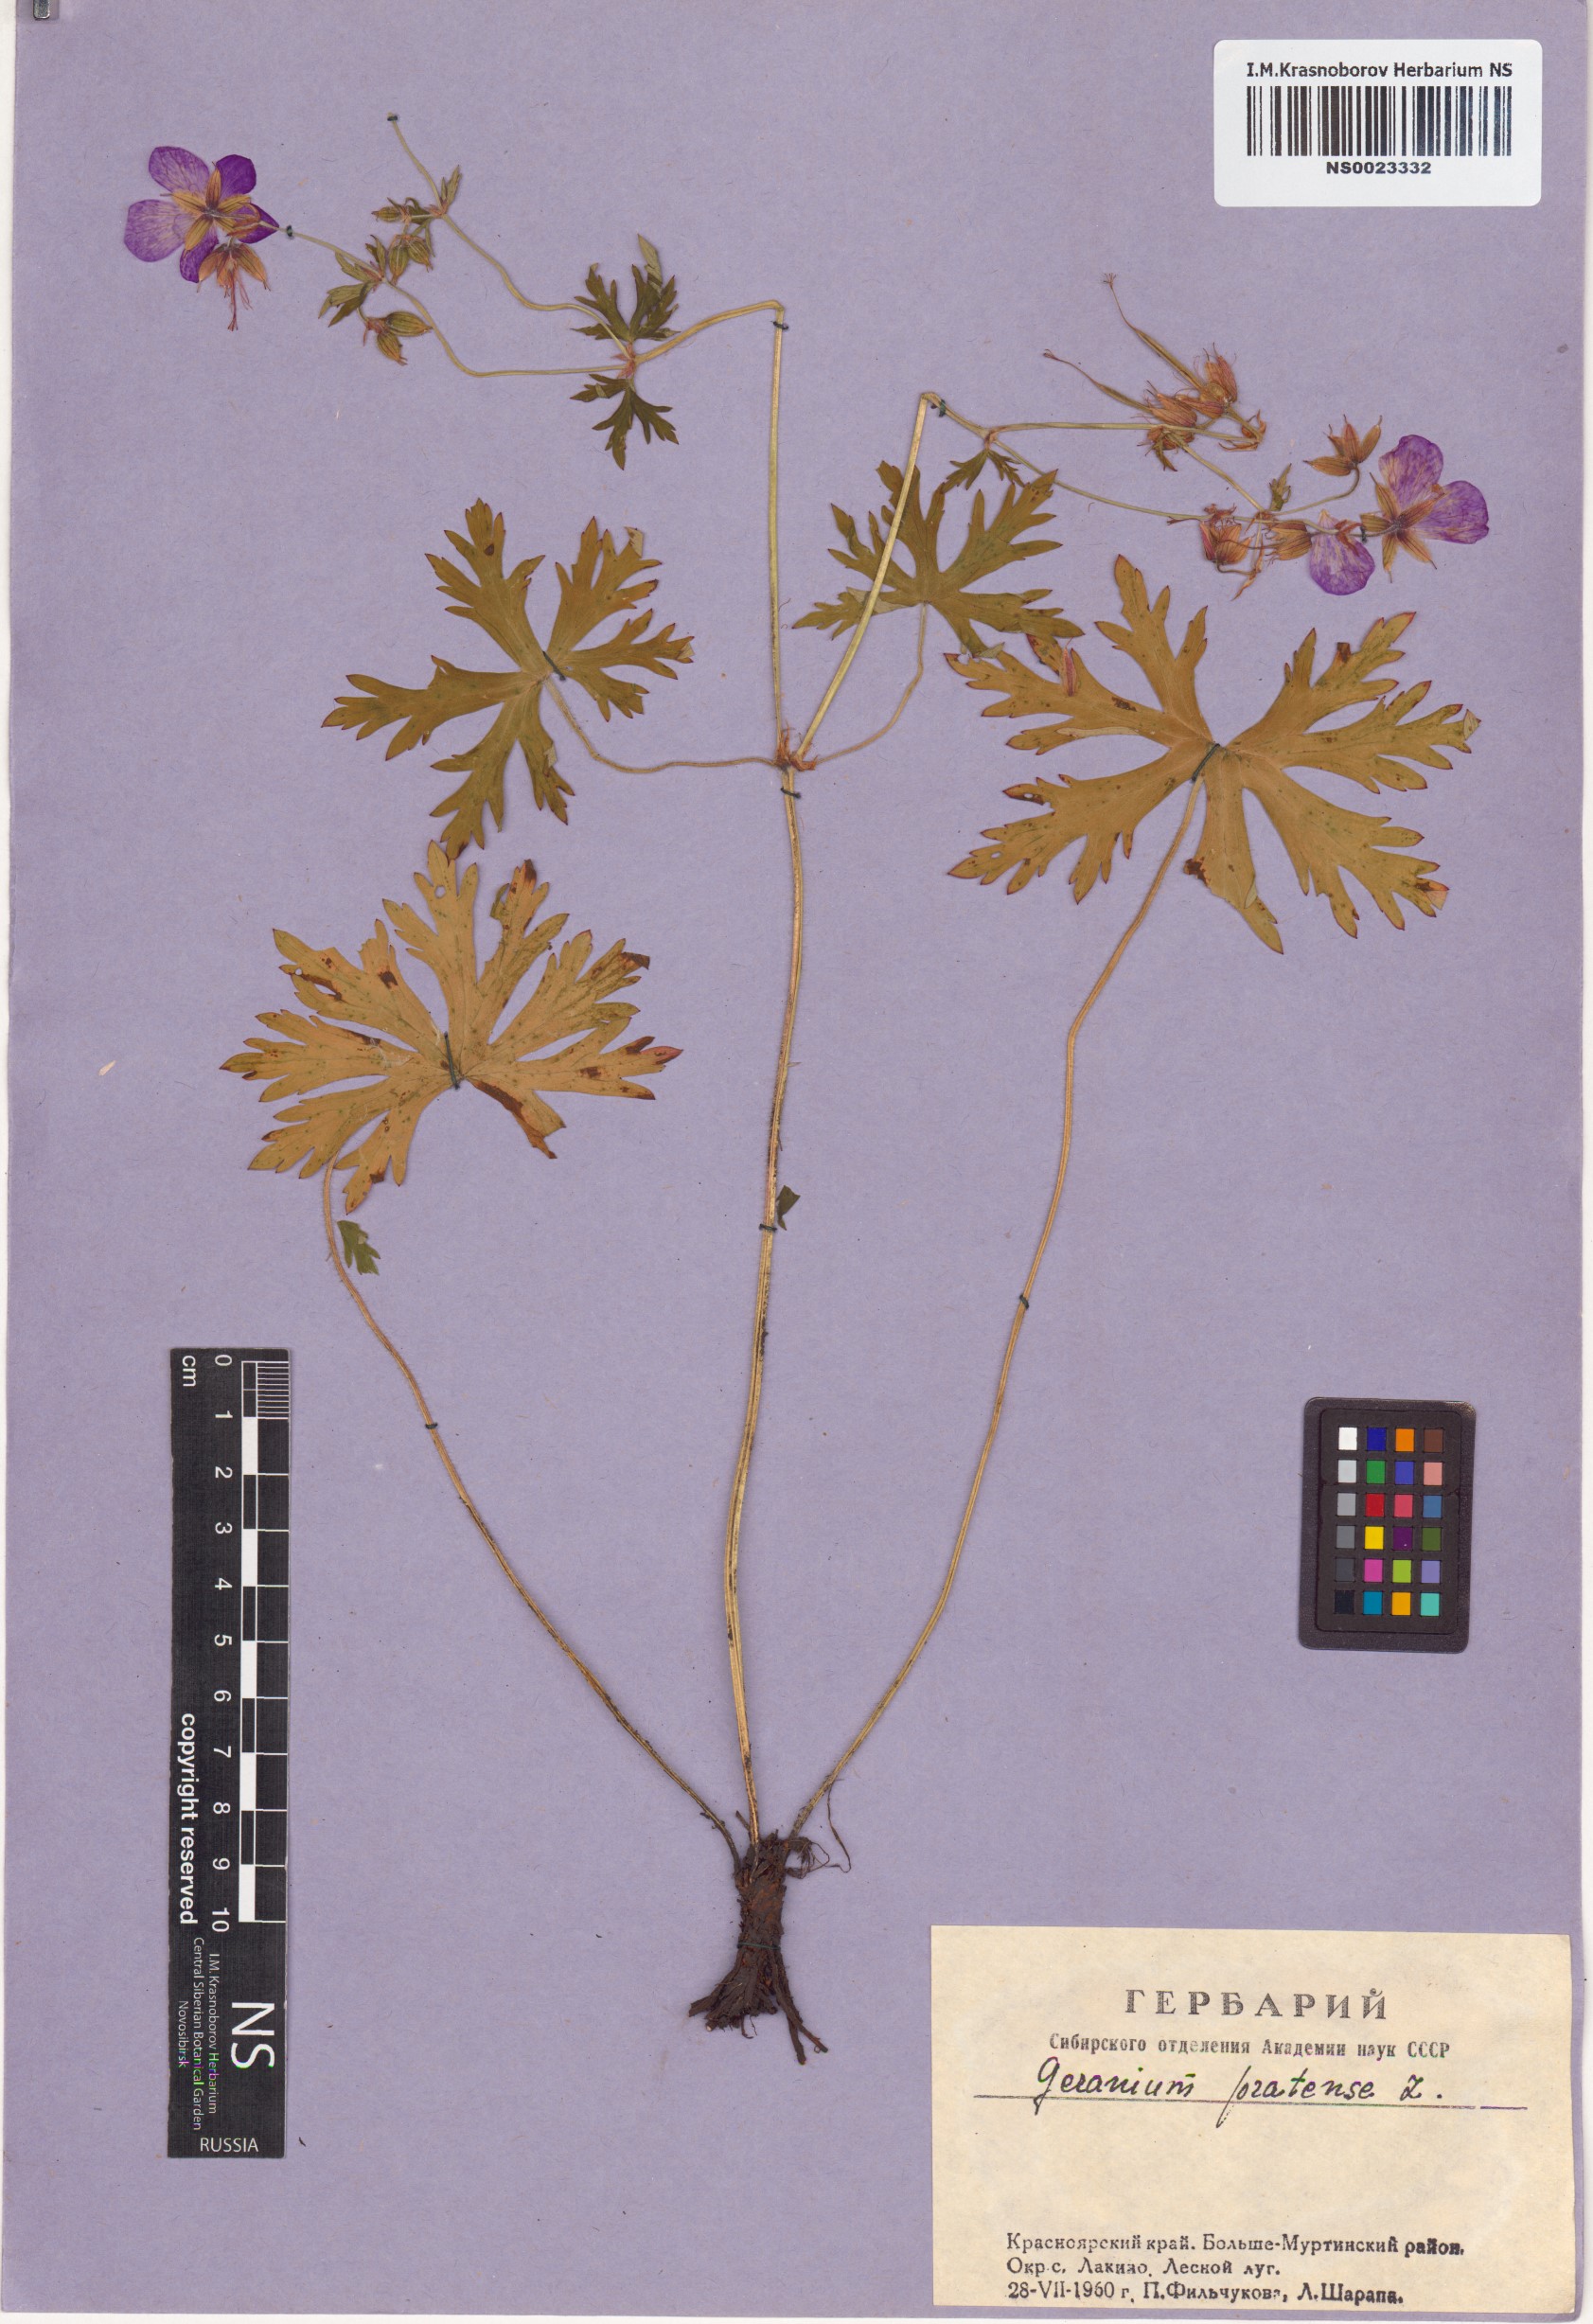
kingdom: Plantae
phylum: Tracheophyta
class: Magnoliopsida
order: Geraniales
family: Geraniaceae
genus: Geranium
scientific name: Geranium pratense
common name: Meadow crane's-bill
